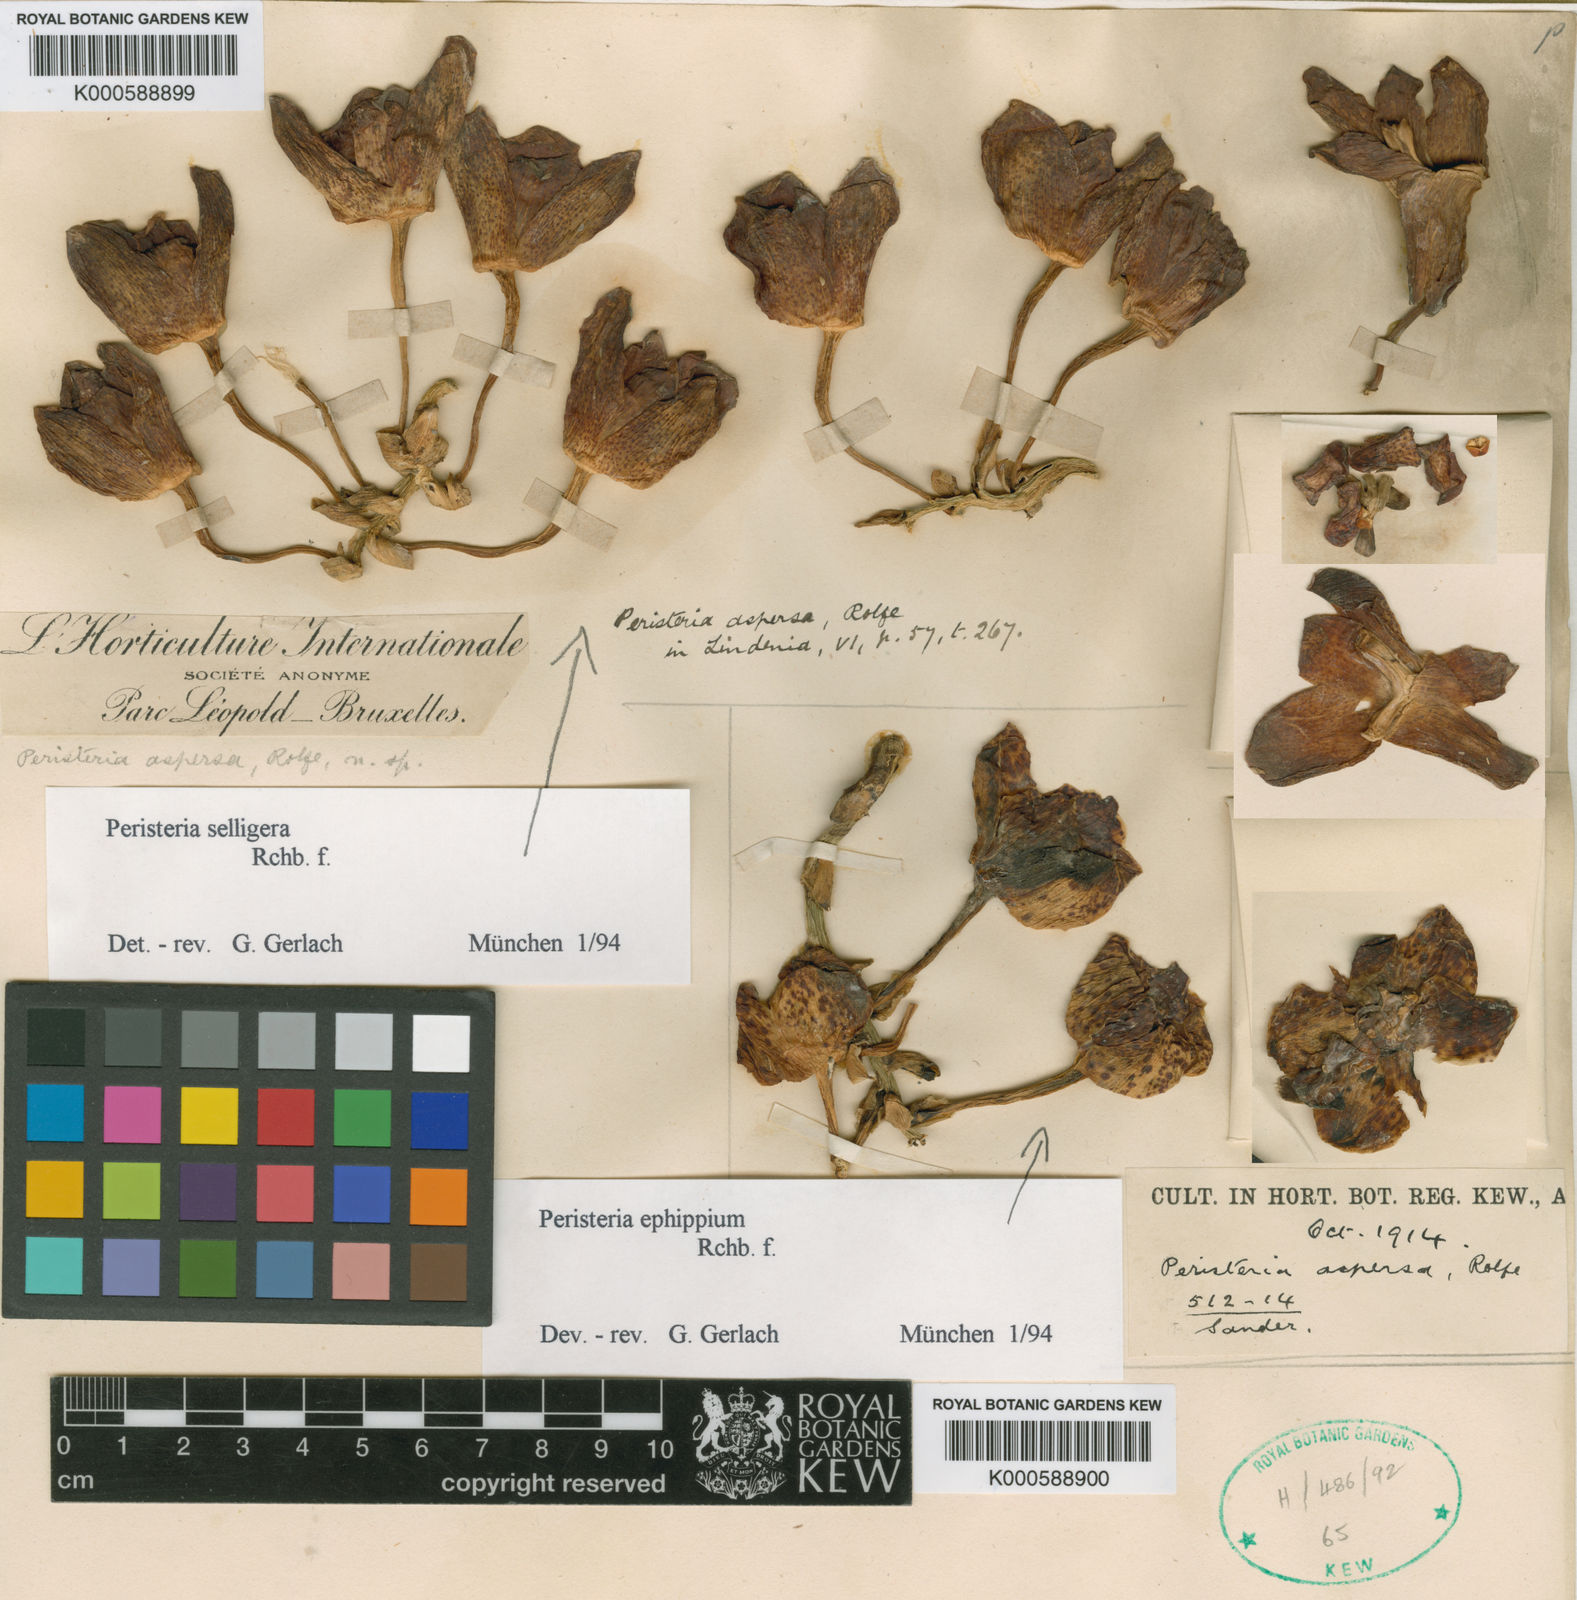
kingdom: Plantae
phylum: Tracheophyta
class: Liliopsida
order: Asparagales
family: Orchidaceae
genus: Peristeria
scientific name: Peristeria aspersa
